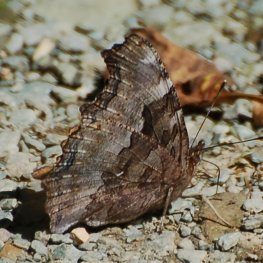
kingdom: Animalia
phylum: Arthropoda
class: Insecta
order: Lepidoptera
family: Nymphalidae
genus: Polygonia
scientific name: Polygonia vaualbum
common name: Compton Tortoiseshell
